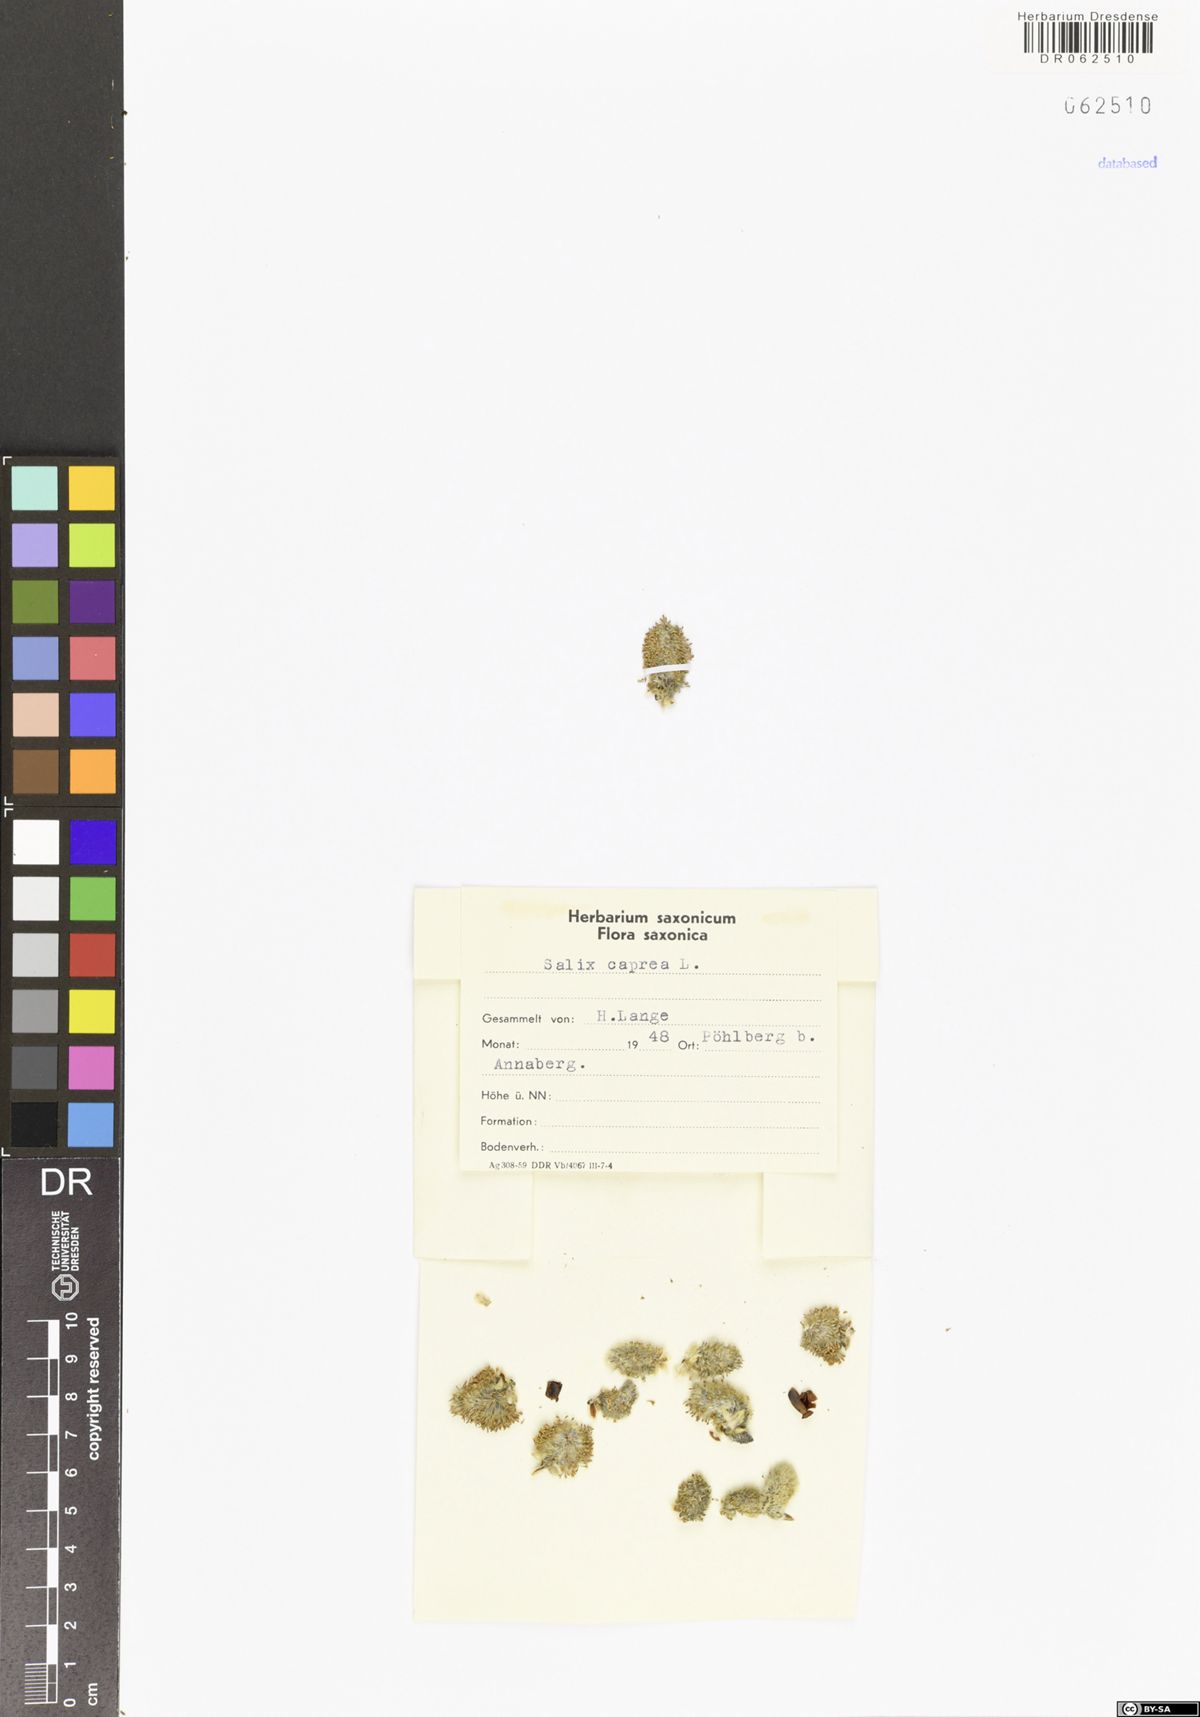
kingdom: Plantae
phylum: Tracheophyta
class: Magnoliopsida
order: Malpighiales
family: Salicaceae
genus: Salix
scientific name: Salix caprea
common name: Goat willow
